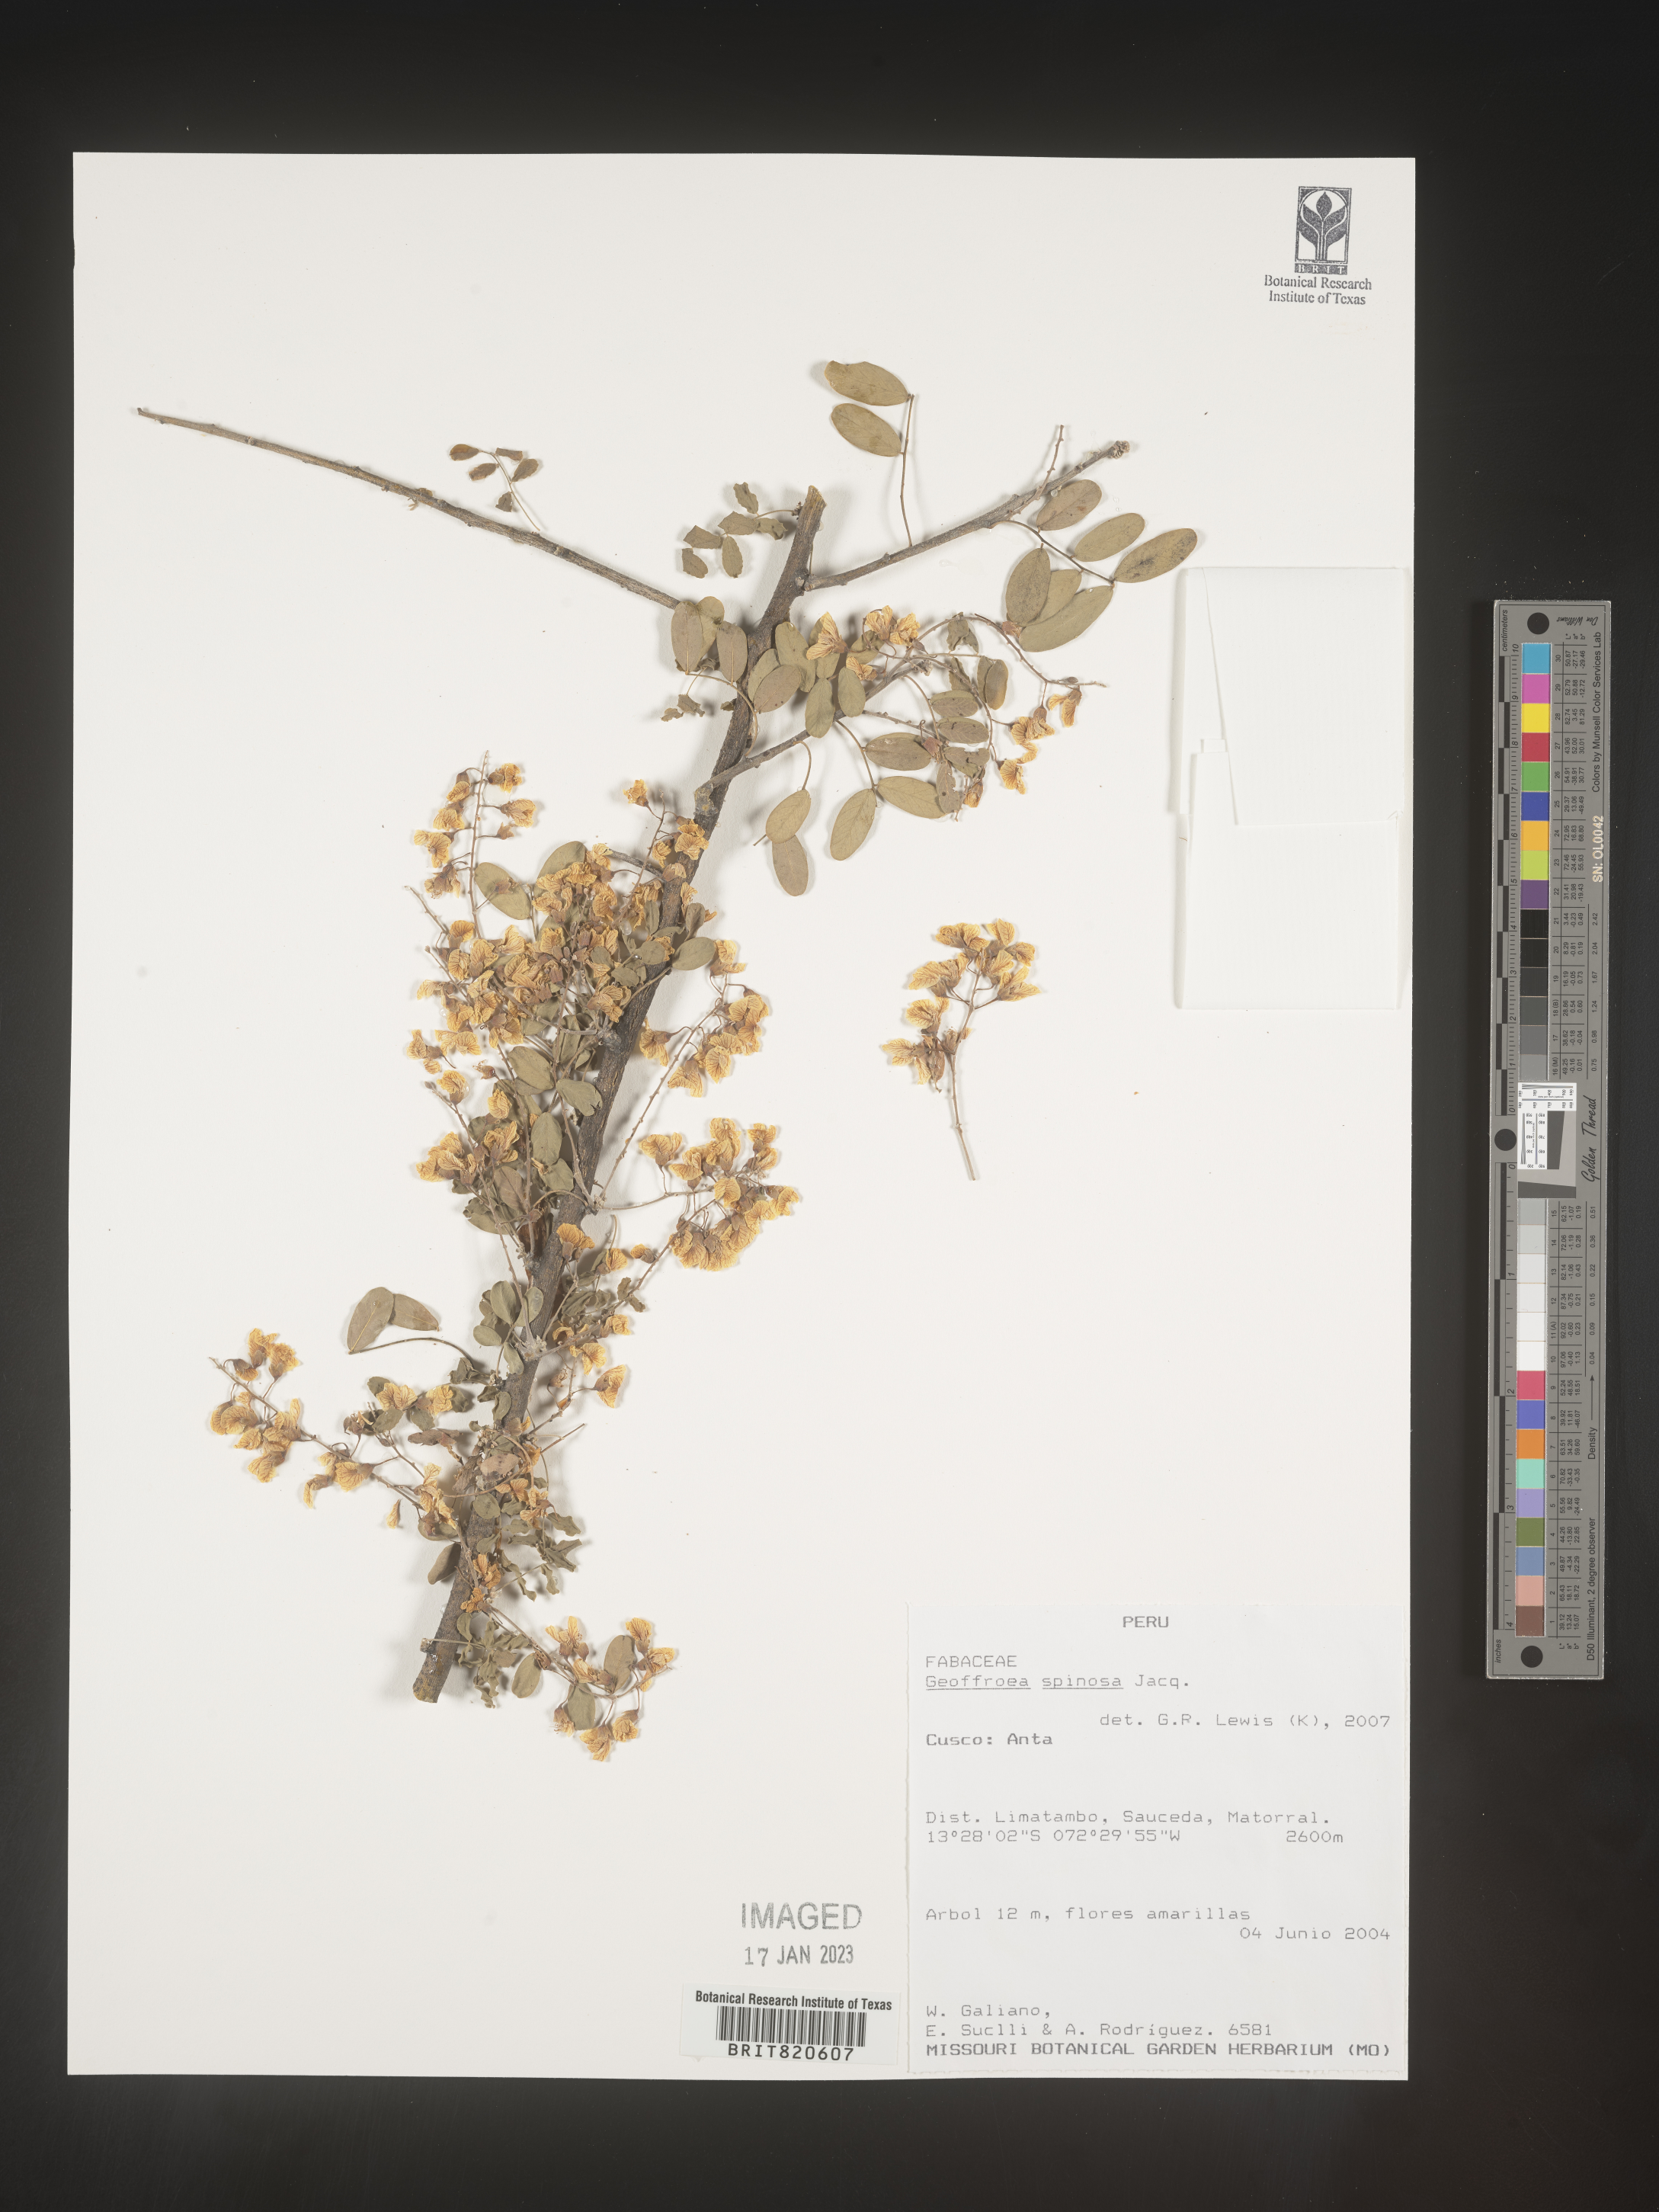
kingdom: Plantae
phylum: Tracheophyta
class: Magnoliopsida
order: Fabales
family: Fabaceae
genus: Geoffroea
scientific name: Geoffroea
